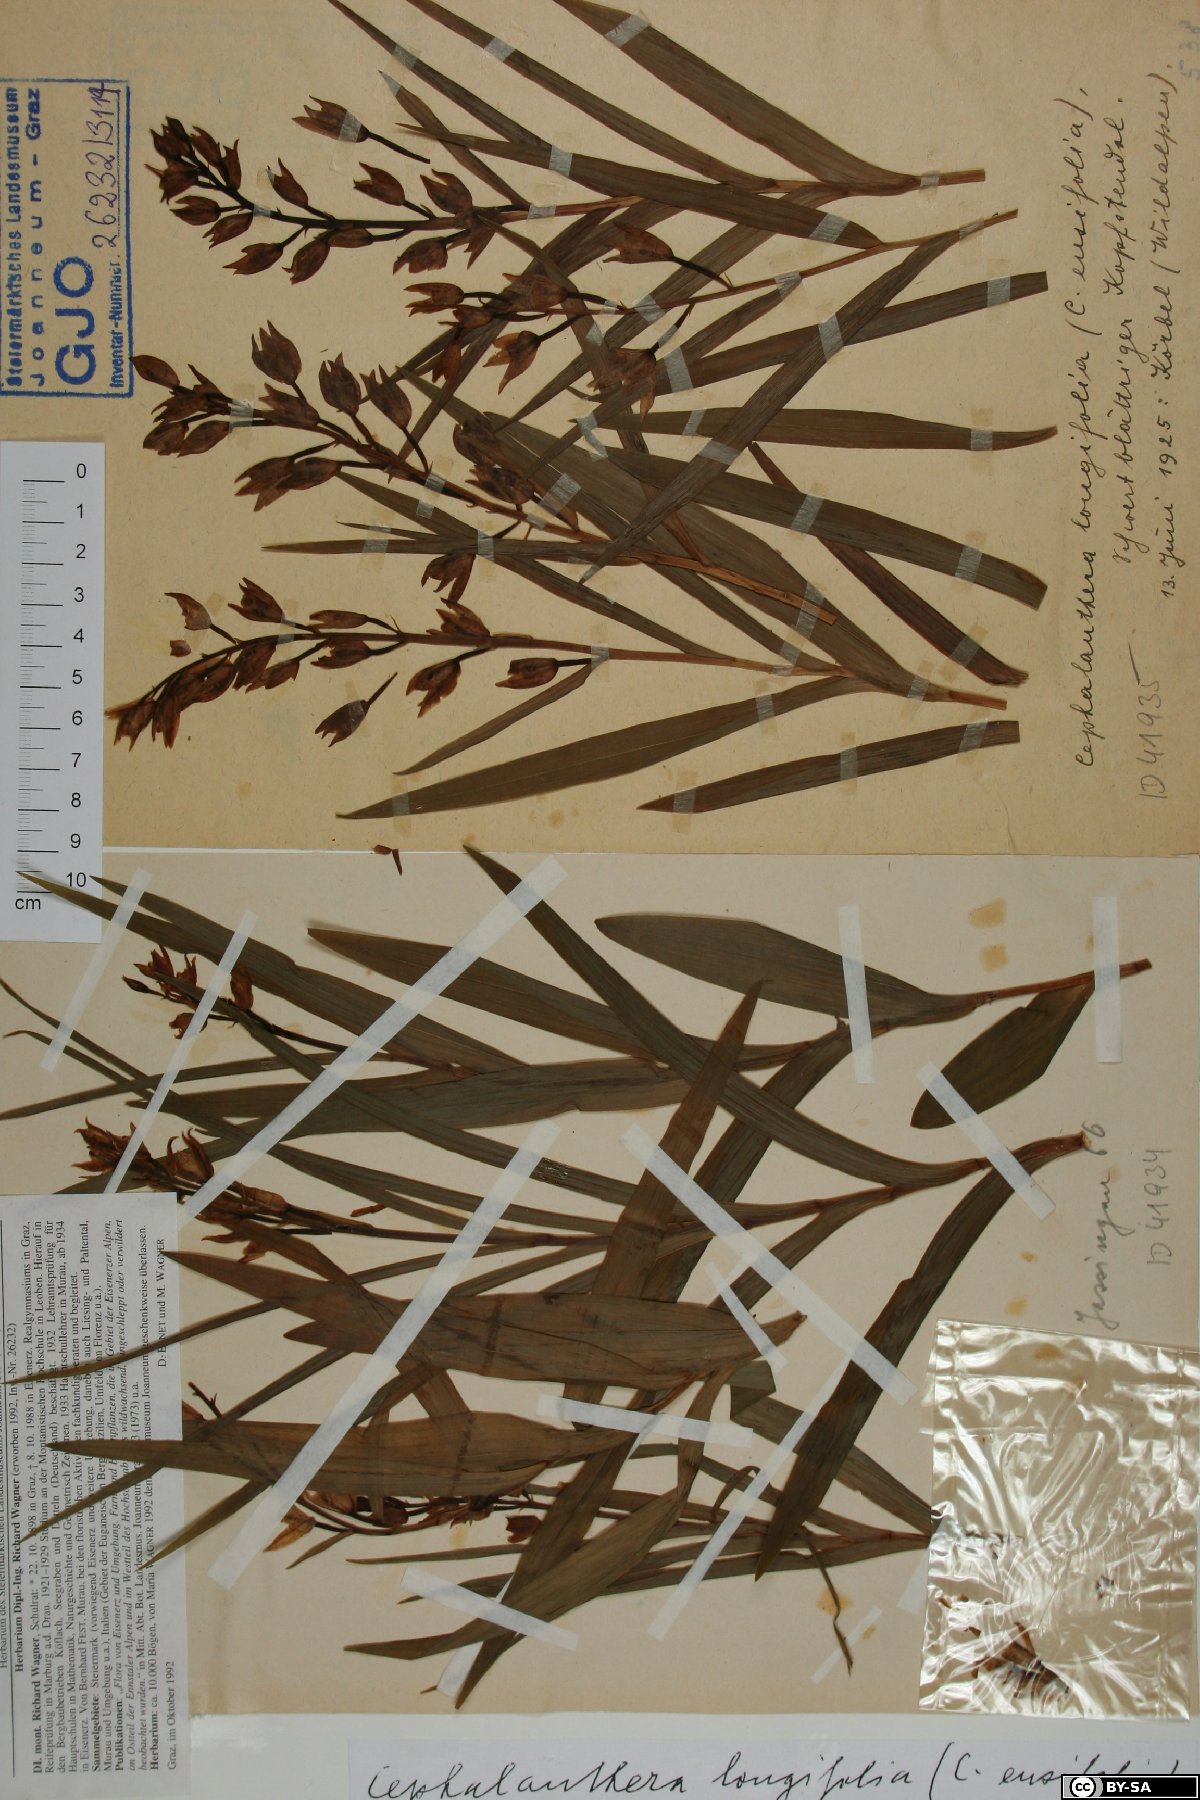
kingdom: Plantae
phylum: Tracheophyta
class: Liliopsida
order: Asparagales
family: Orchidaceae
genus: Cephalanthera
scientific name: Cephalanthera longifolia
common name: Narrow-leaved helleborine
